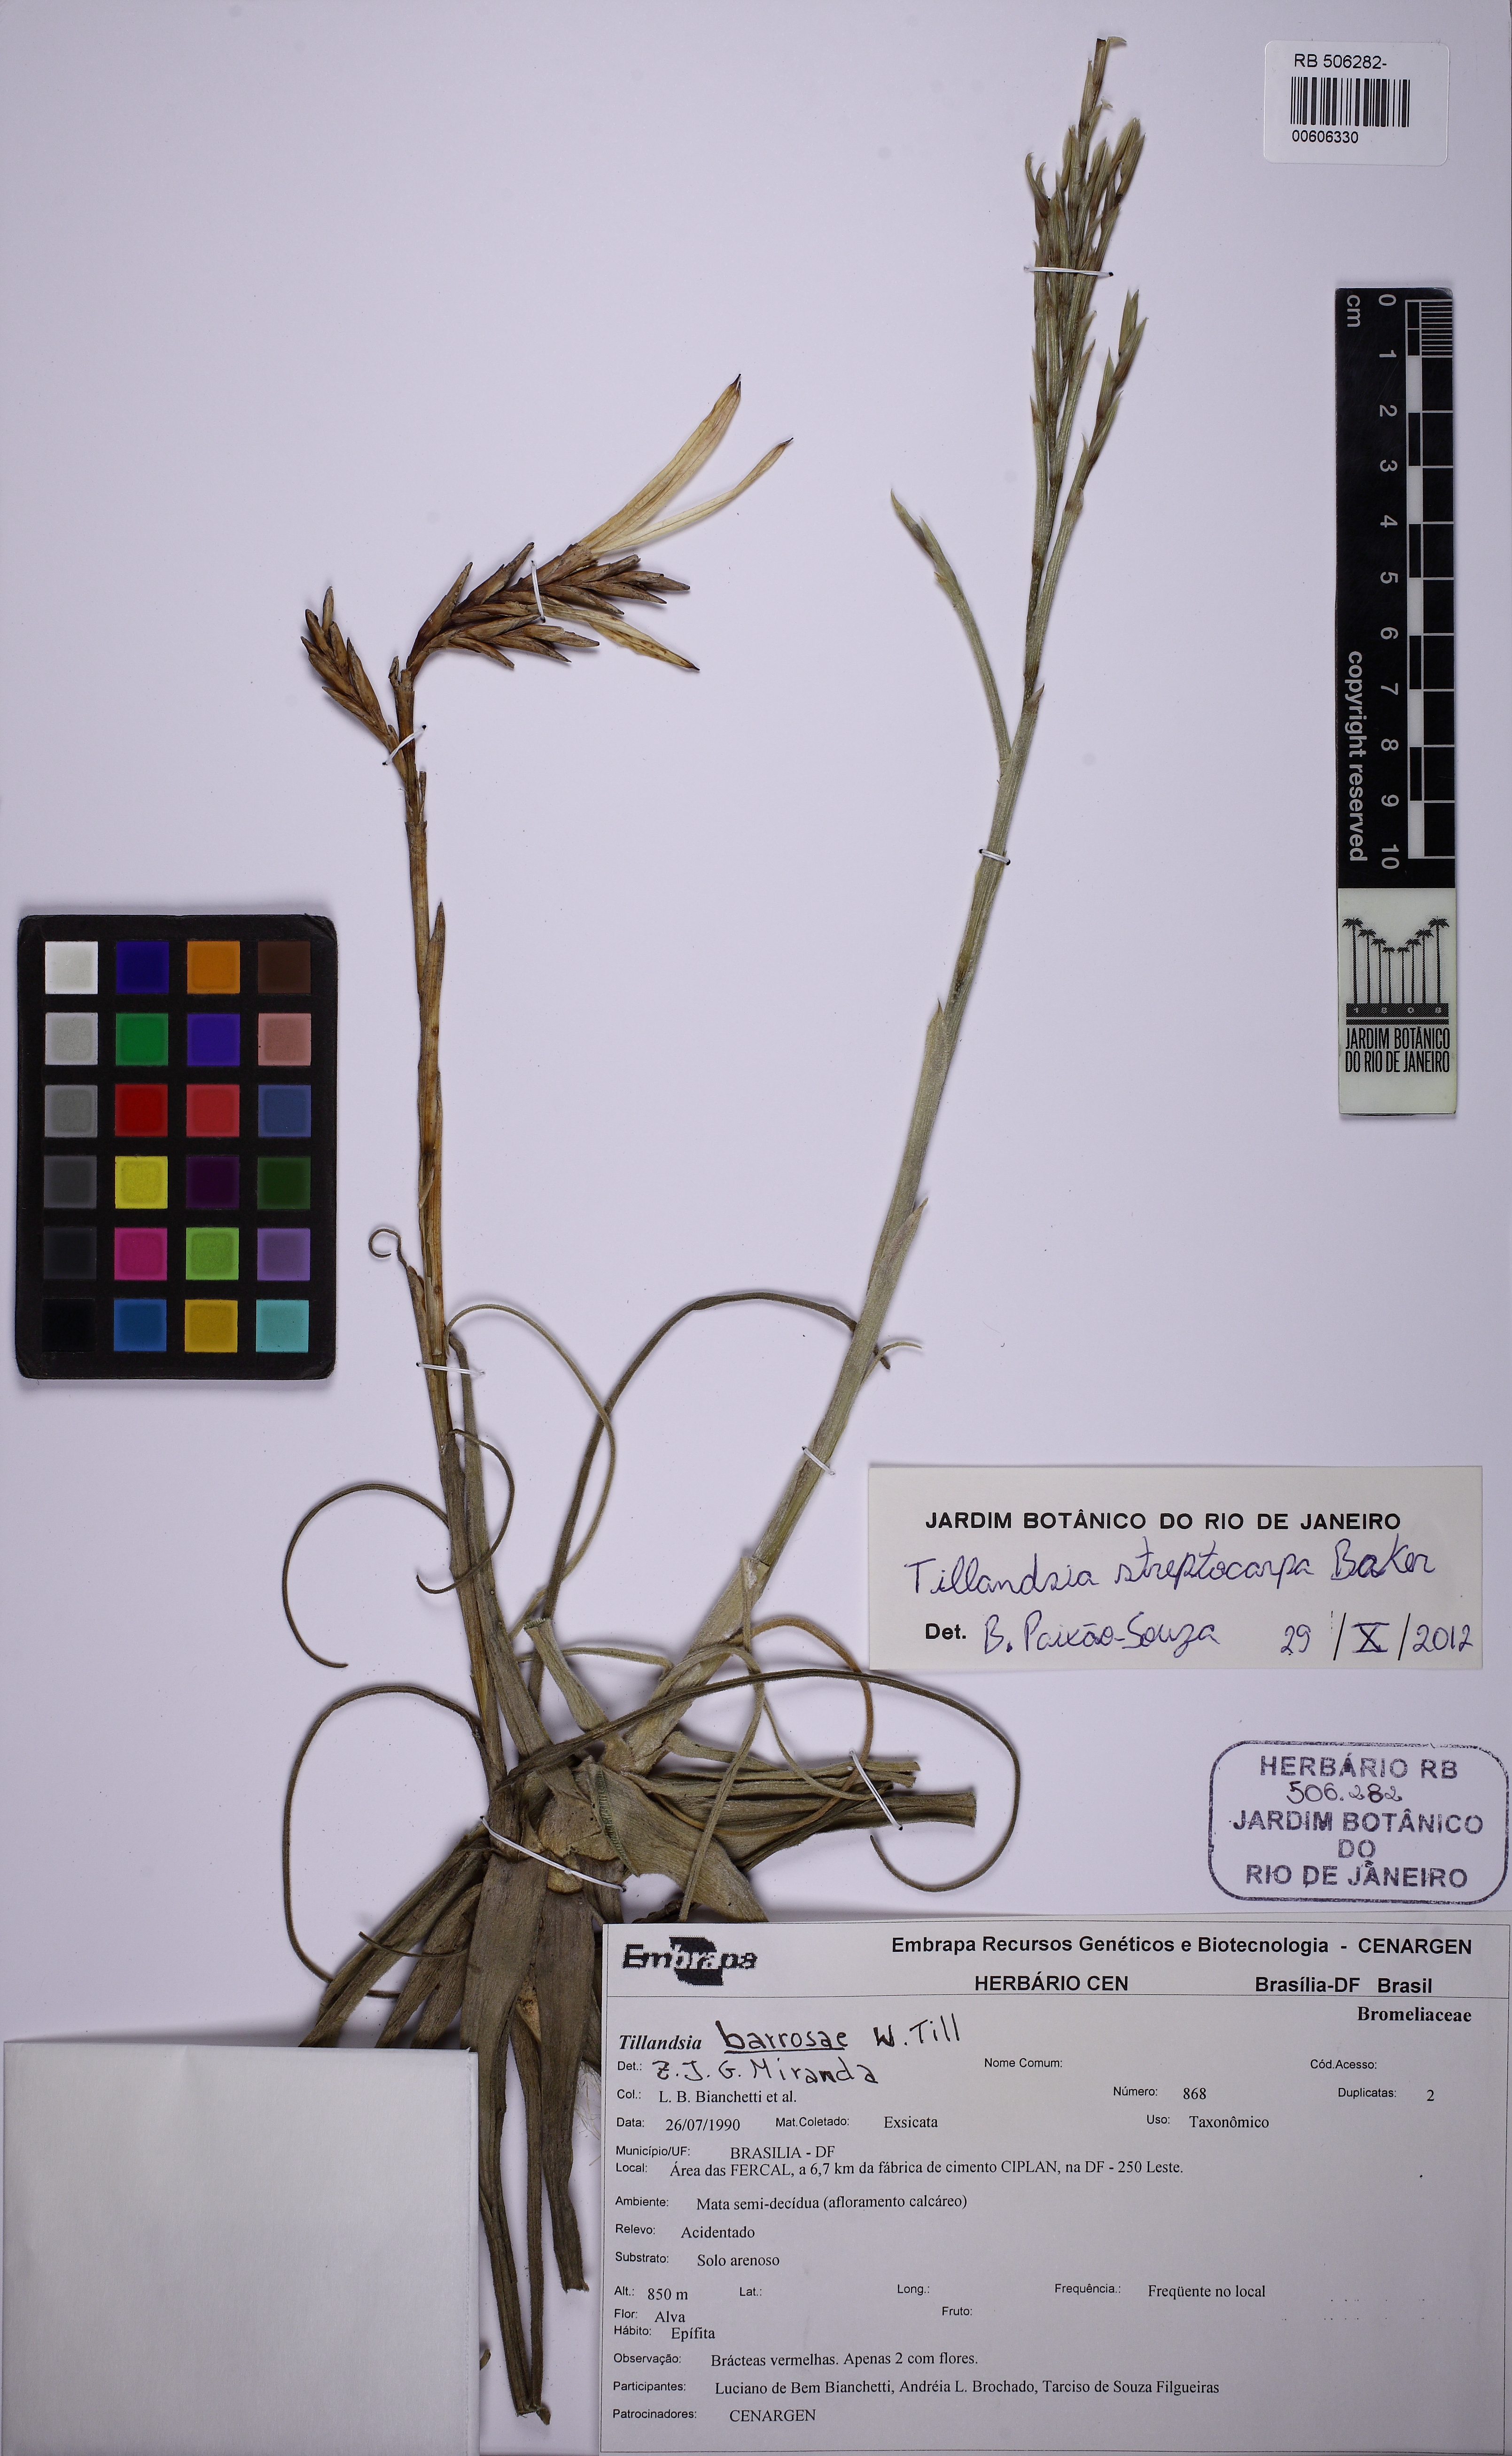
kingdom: Plantae
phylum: Tracheophyta
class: Liliopsida
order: Poales
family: Bromeliaceae
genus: Tillandsia
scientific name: Tillandsia streptocarpa
